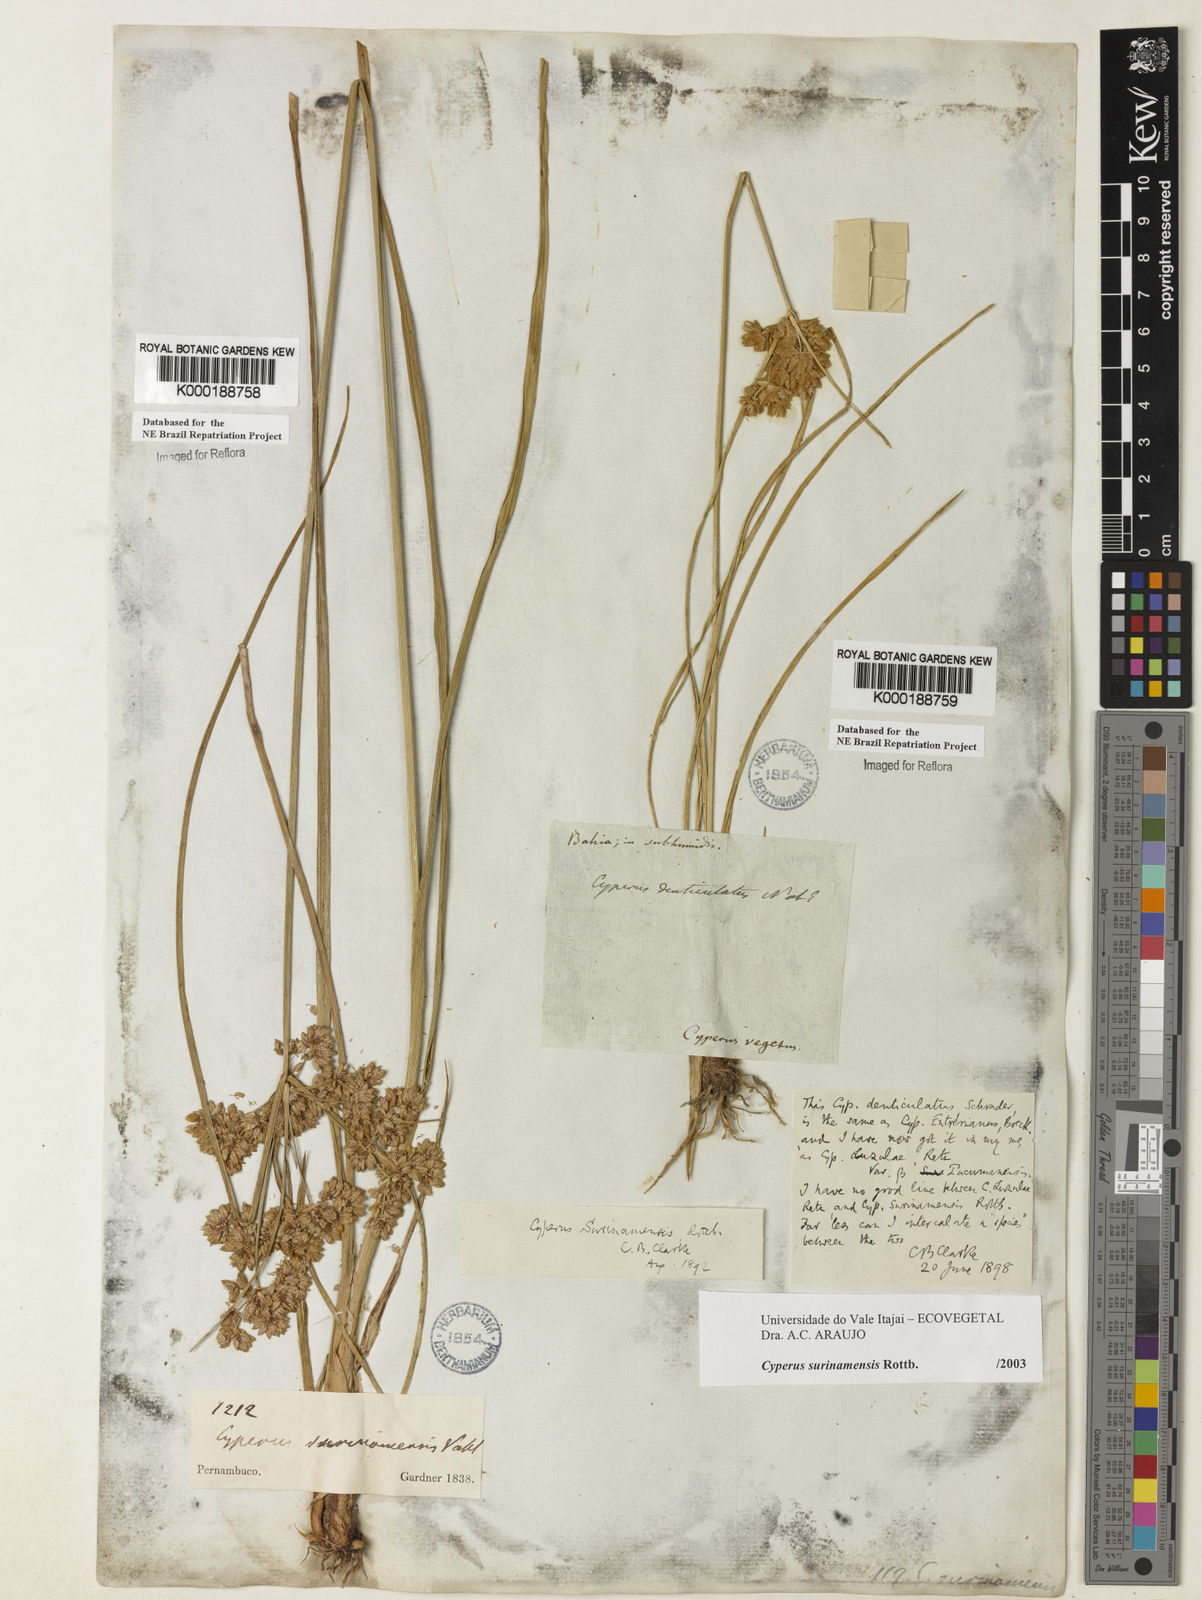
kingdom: Plantae
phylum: Tracheophyta
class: Liliopsida
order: Poales
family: Cyperaceae
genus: Cyperus
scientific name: Cyperus surinamensis
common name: Tropical flat sedge
